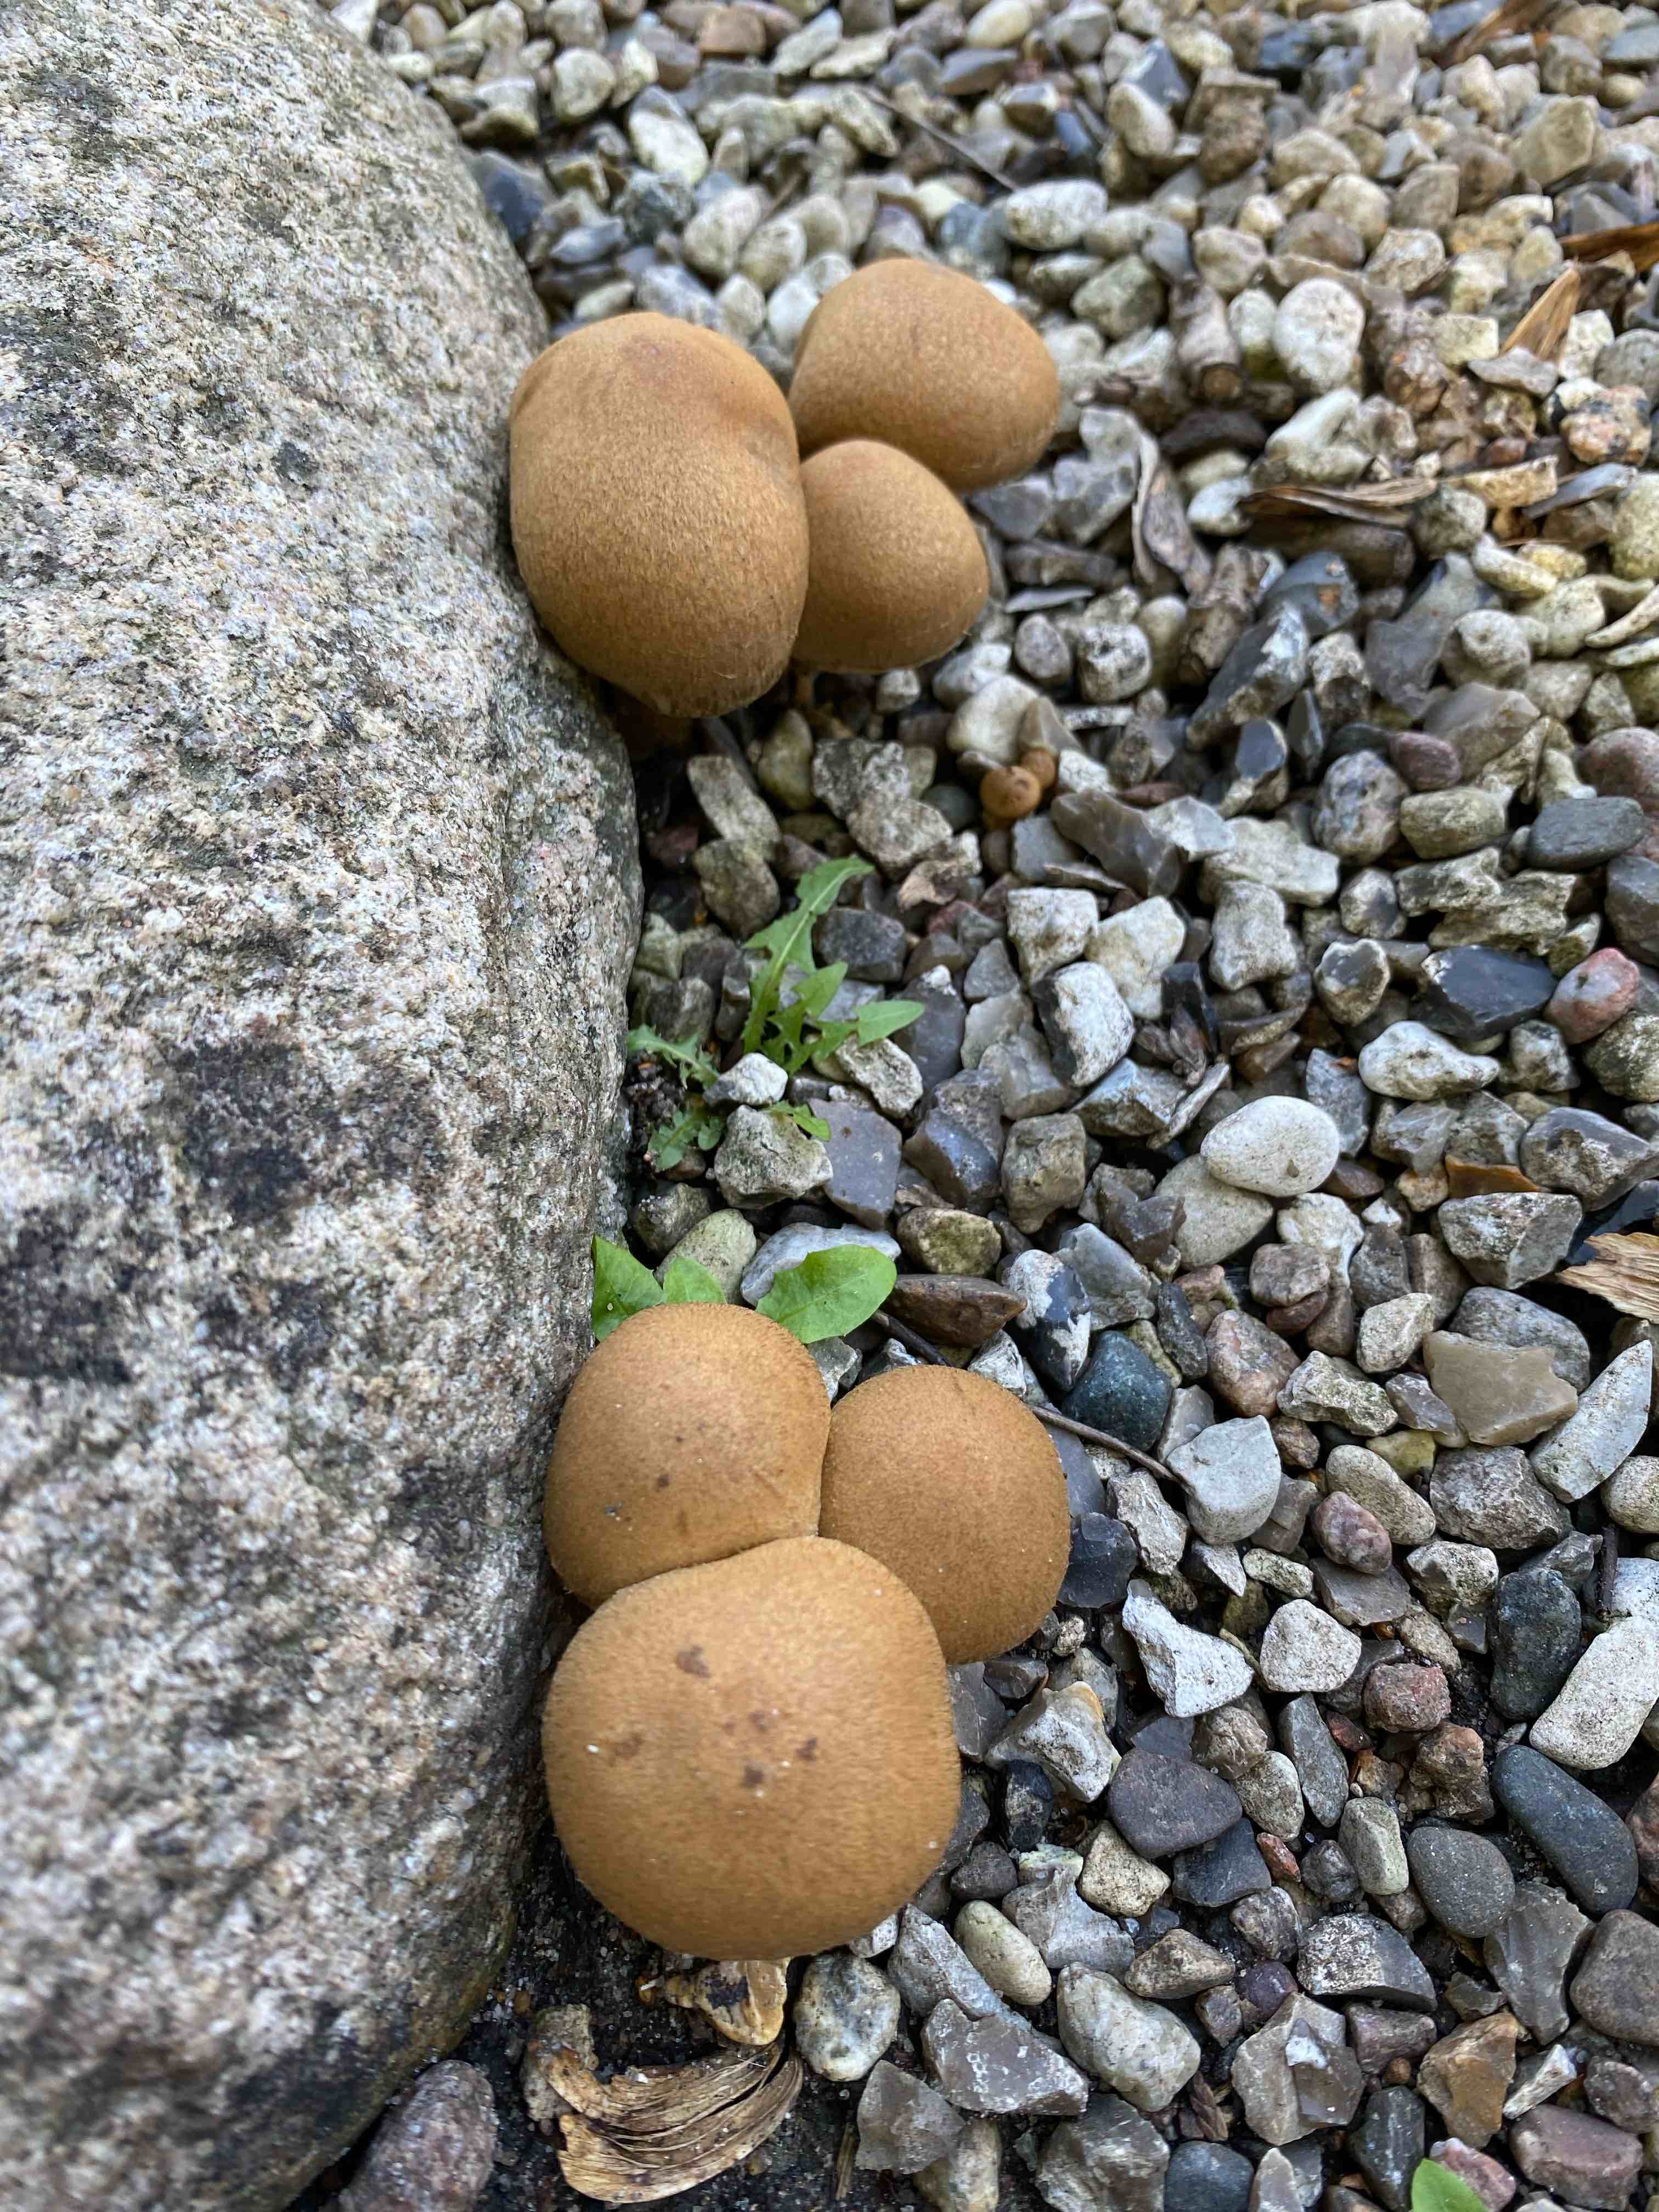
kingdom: Fungi
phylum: Basidiomycota
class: Agaricomycetes
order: Agaricales
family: Psathyrellaceae
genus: Lacrymaria
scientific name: Lacrymaria lacrymabunda
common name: grædende mørkhat
